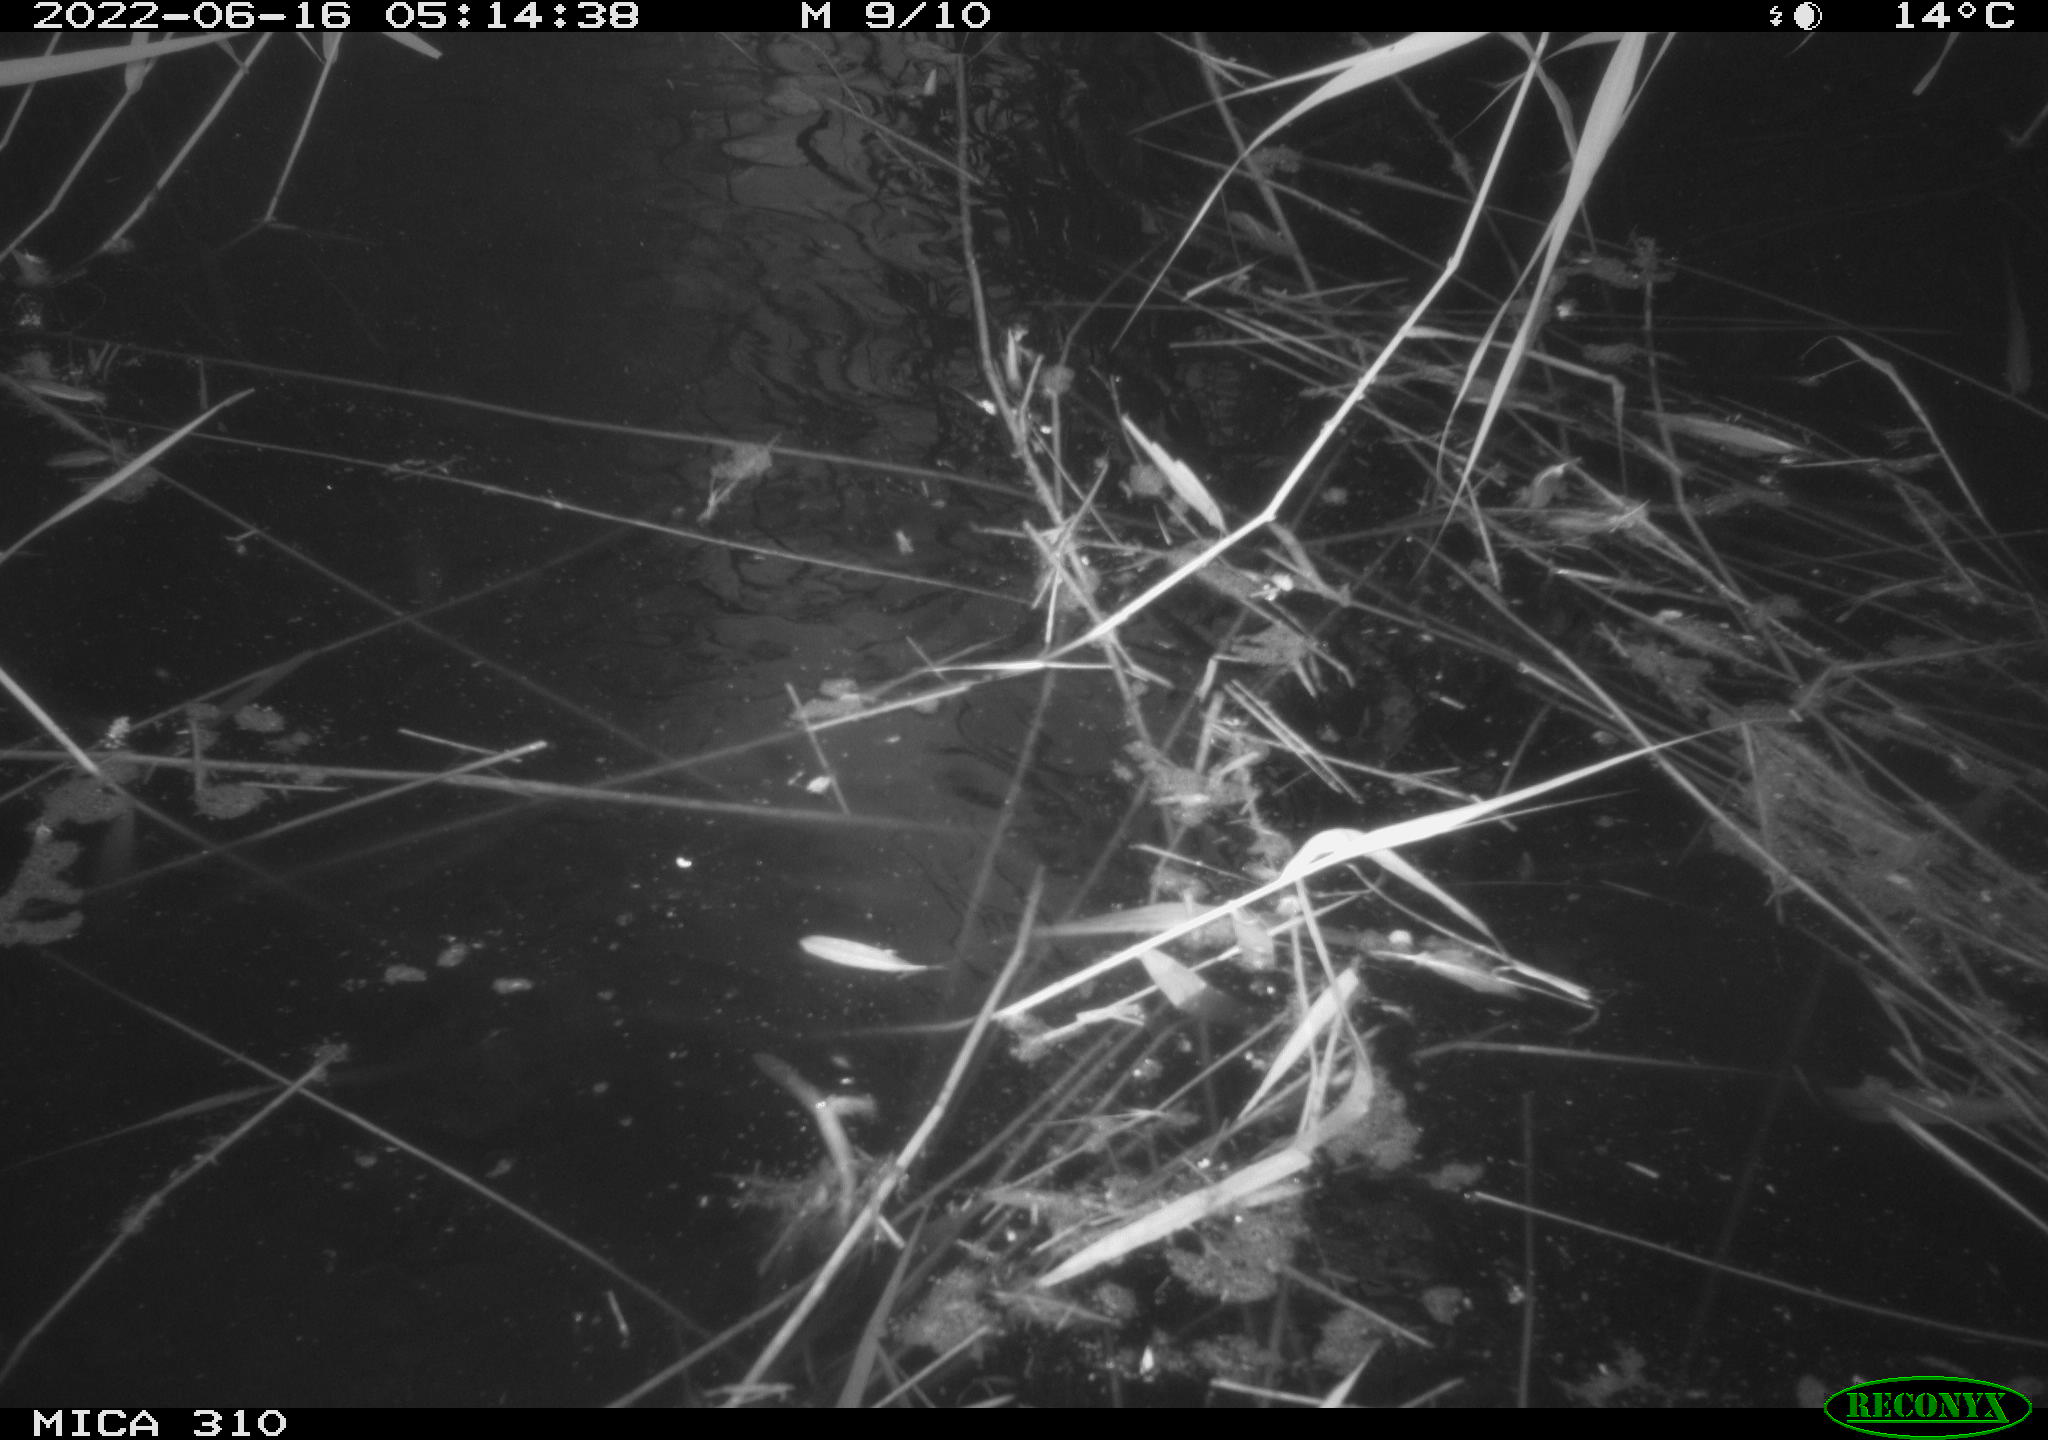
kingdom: Animalia
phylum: Chordata
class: Aves
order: Anseriformes
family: Anatidae
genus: Anas
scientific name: Anas platyrhynchos
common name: Mallard
